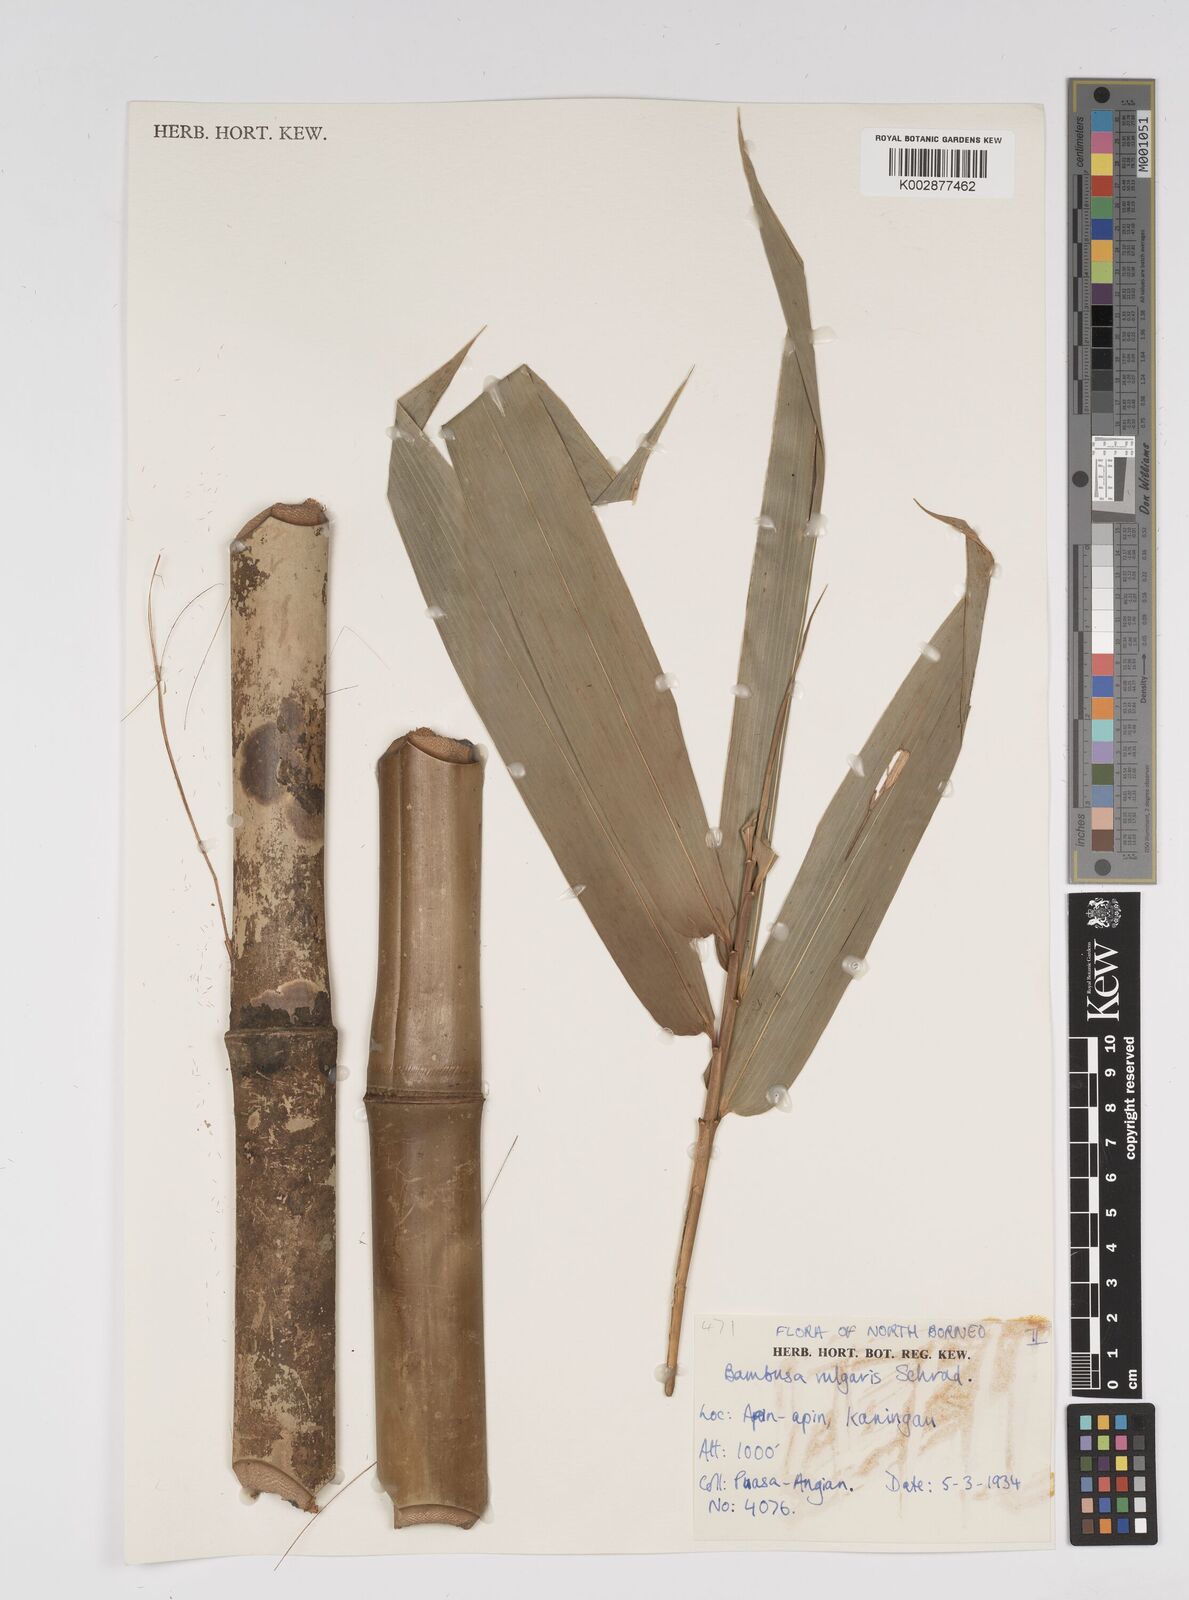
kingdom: Plantae
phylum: Tracheophyta
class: Liliopsida
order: Poales
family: Poaceae
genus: Bambusa
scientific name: Bambusa vulgaris
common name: Common bamboo
